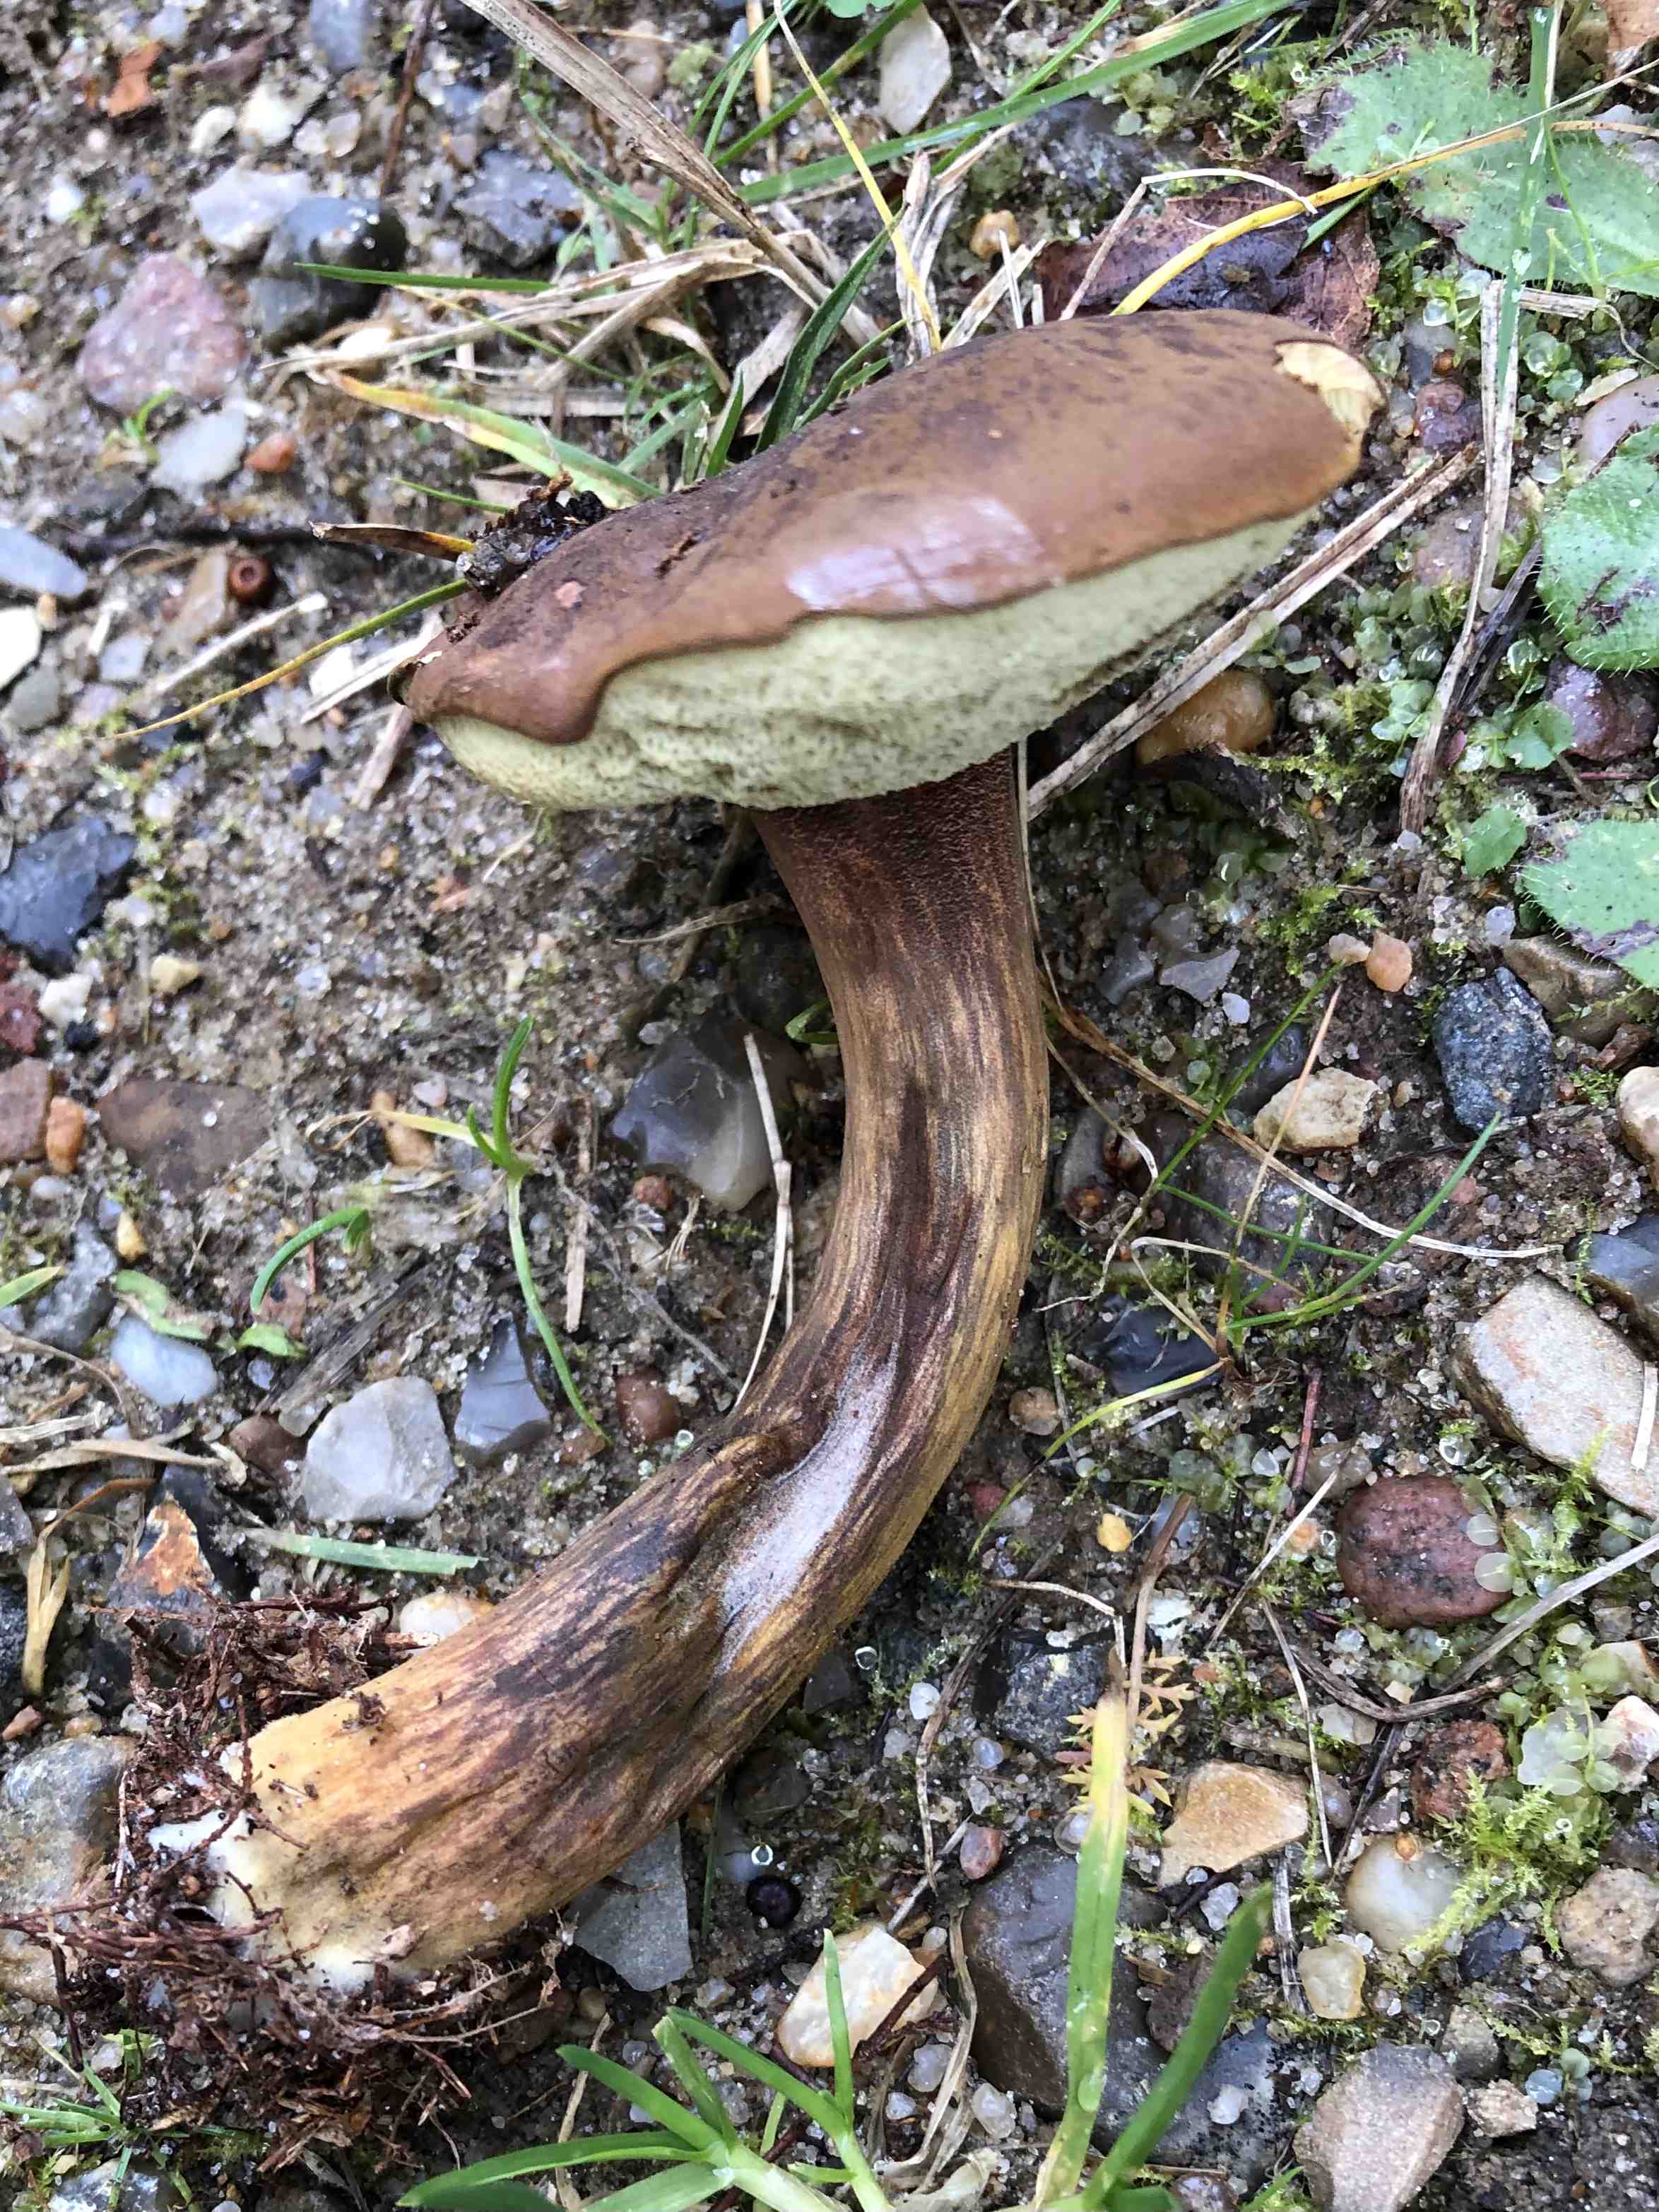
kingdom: Fungi
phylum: Basidiomycota
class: Agaricomycetes
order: Boletales
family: Boletaceae
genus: Imleria
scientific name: Imleria badia
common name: brunstokket rørhat
